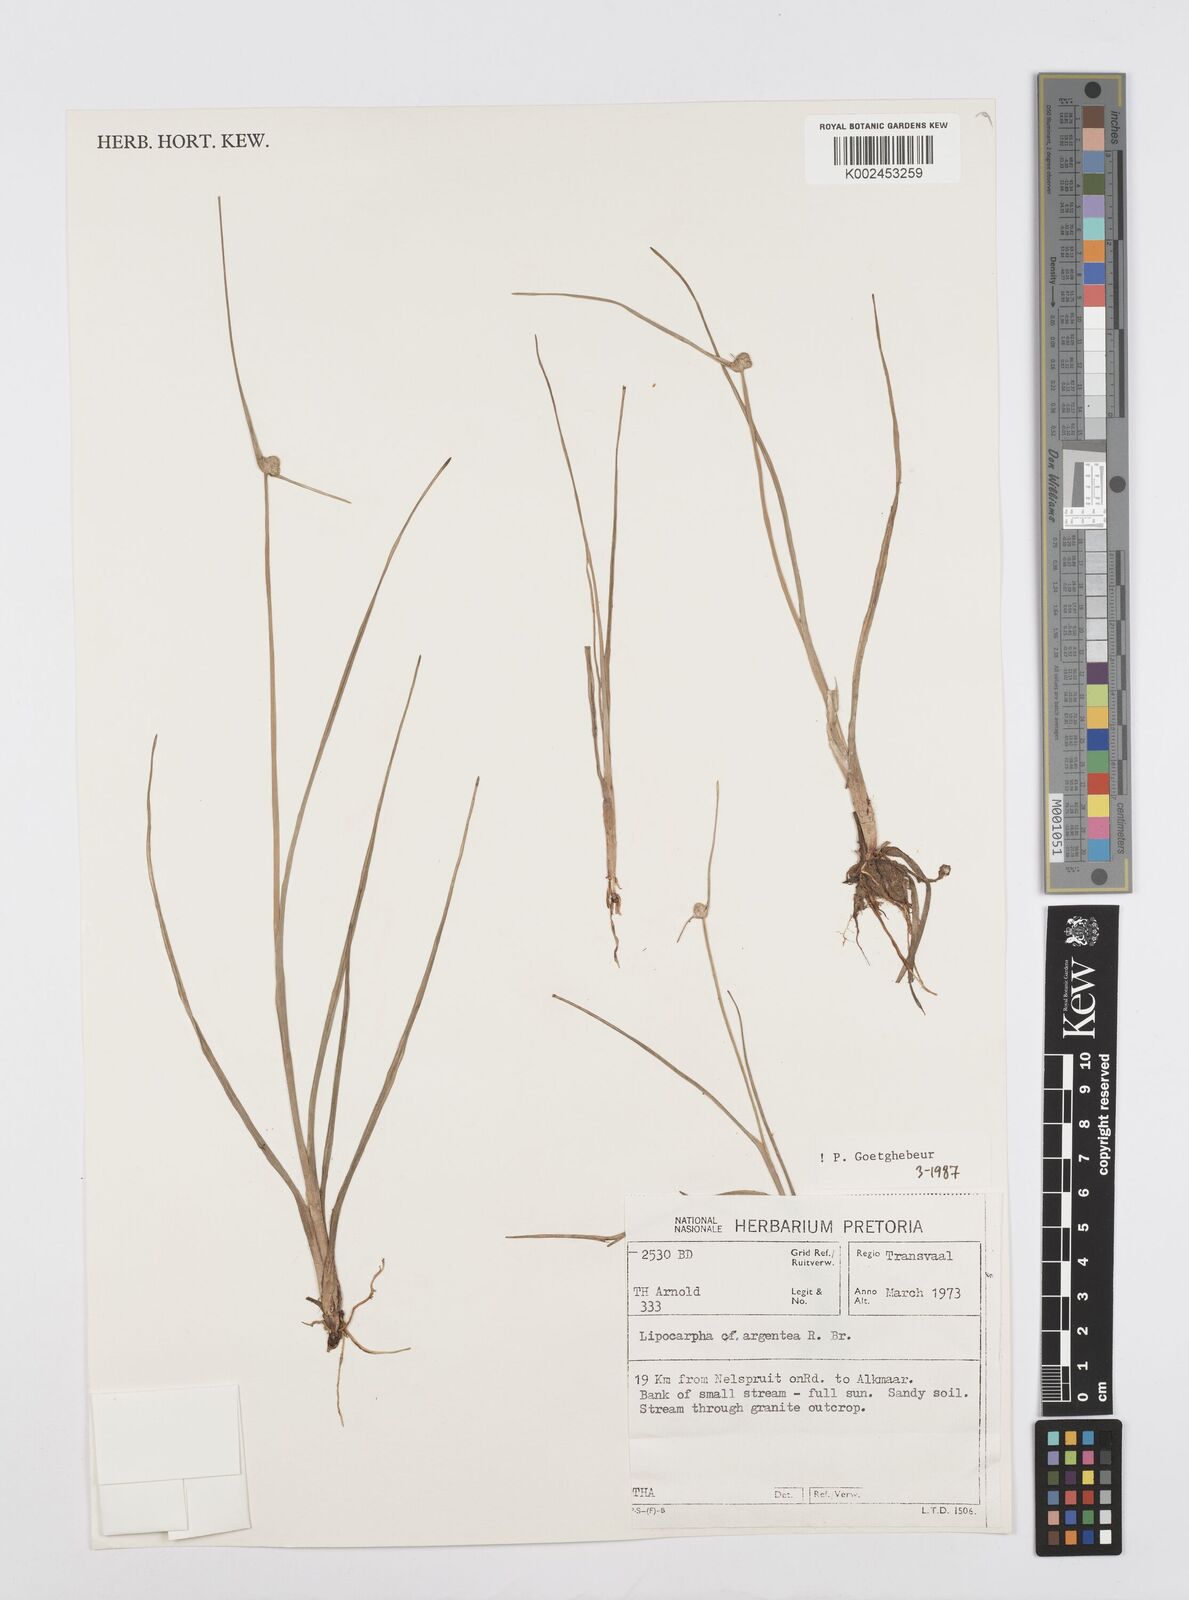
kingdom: Plantae
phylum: Tracheophyta
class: Liliopsida
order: Poales
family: Cyperaceae
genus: Cyperus
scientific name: Cyperus albescens
